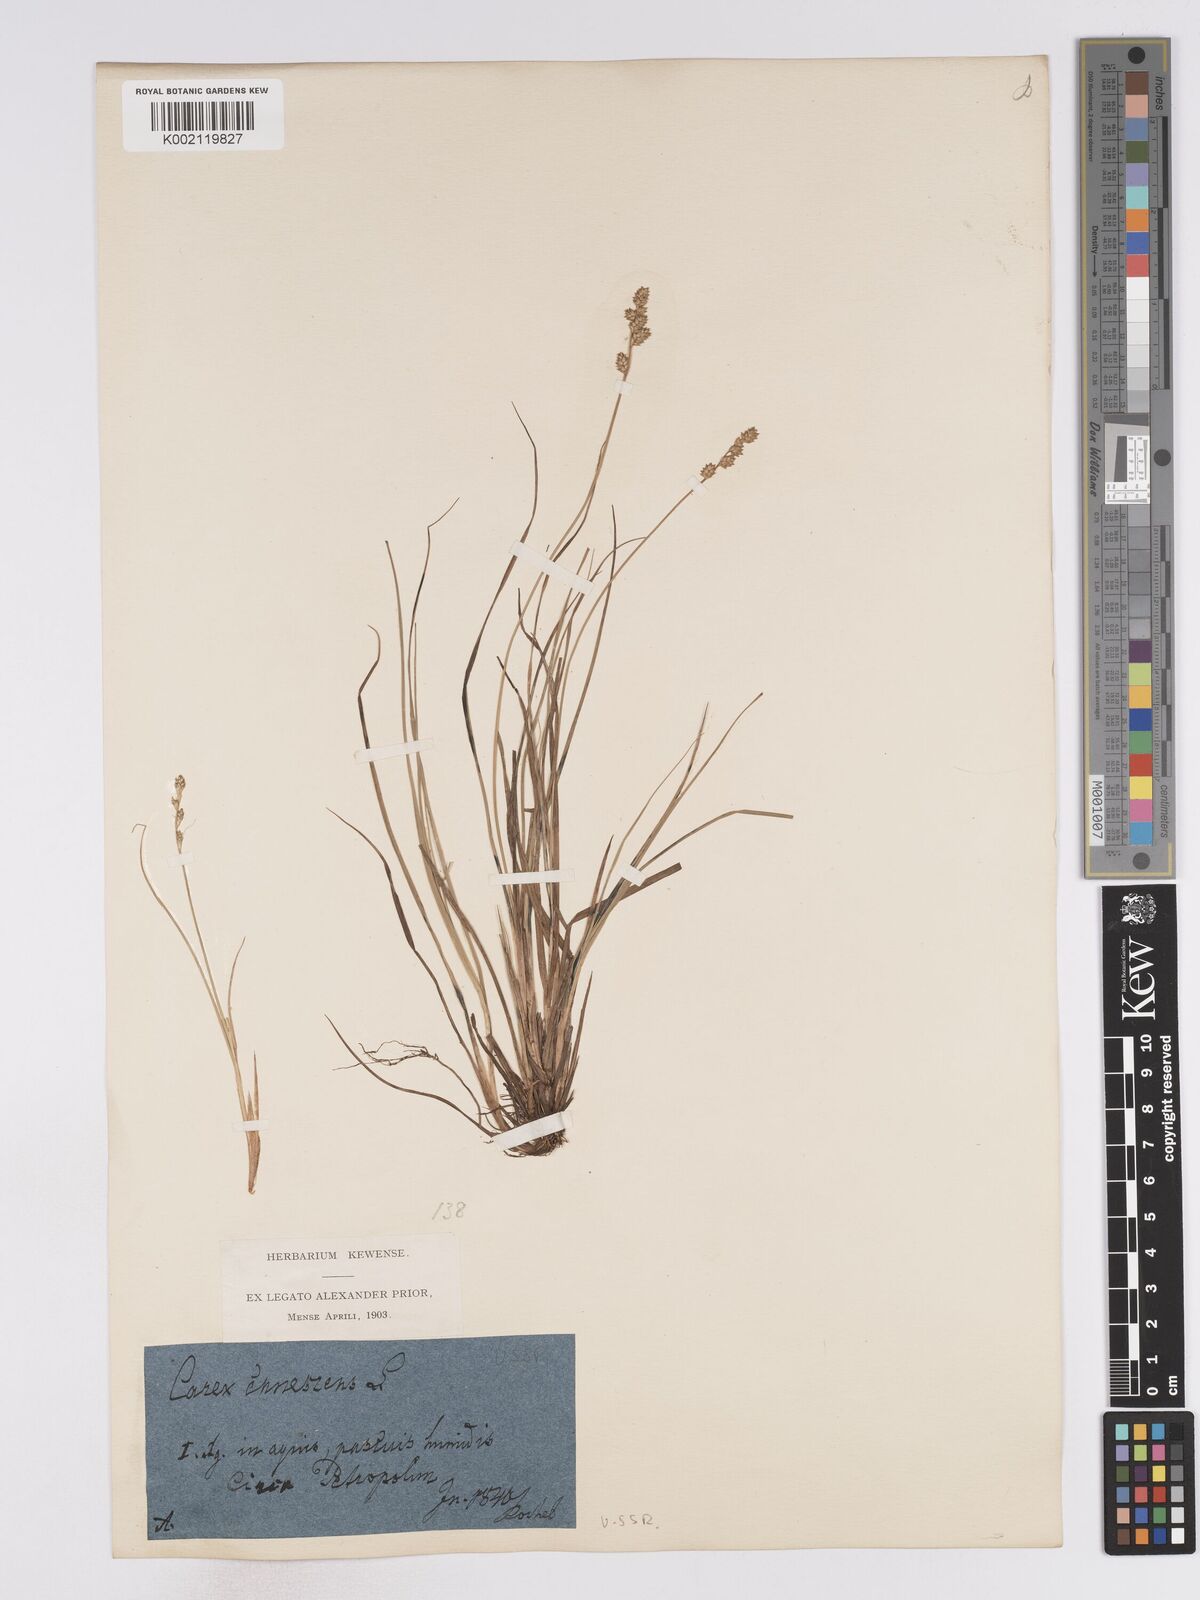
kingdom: Plantae
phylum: Tracheophyta
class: Liliopsida
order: Poales
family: Cyperaceae
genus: Carex
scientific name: Carex curta
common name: White sedge
